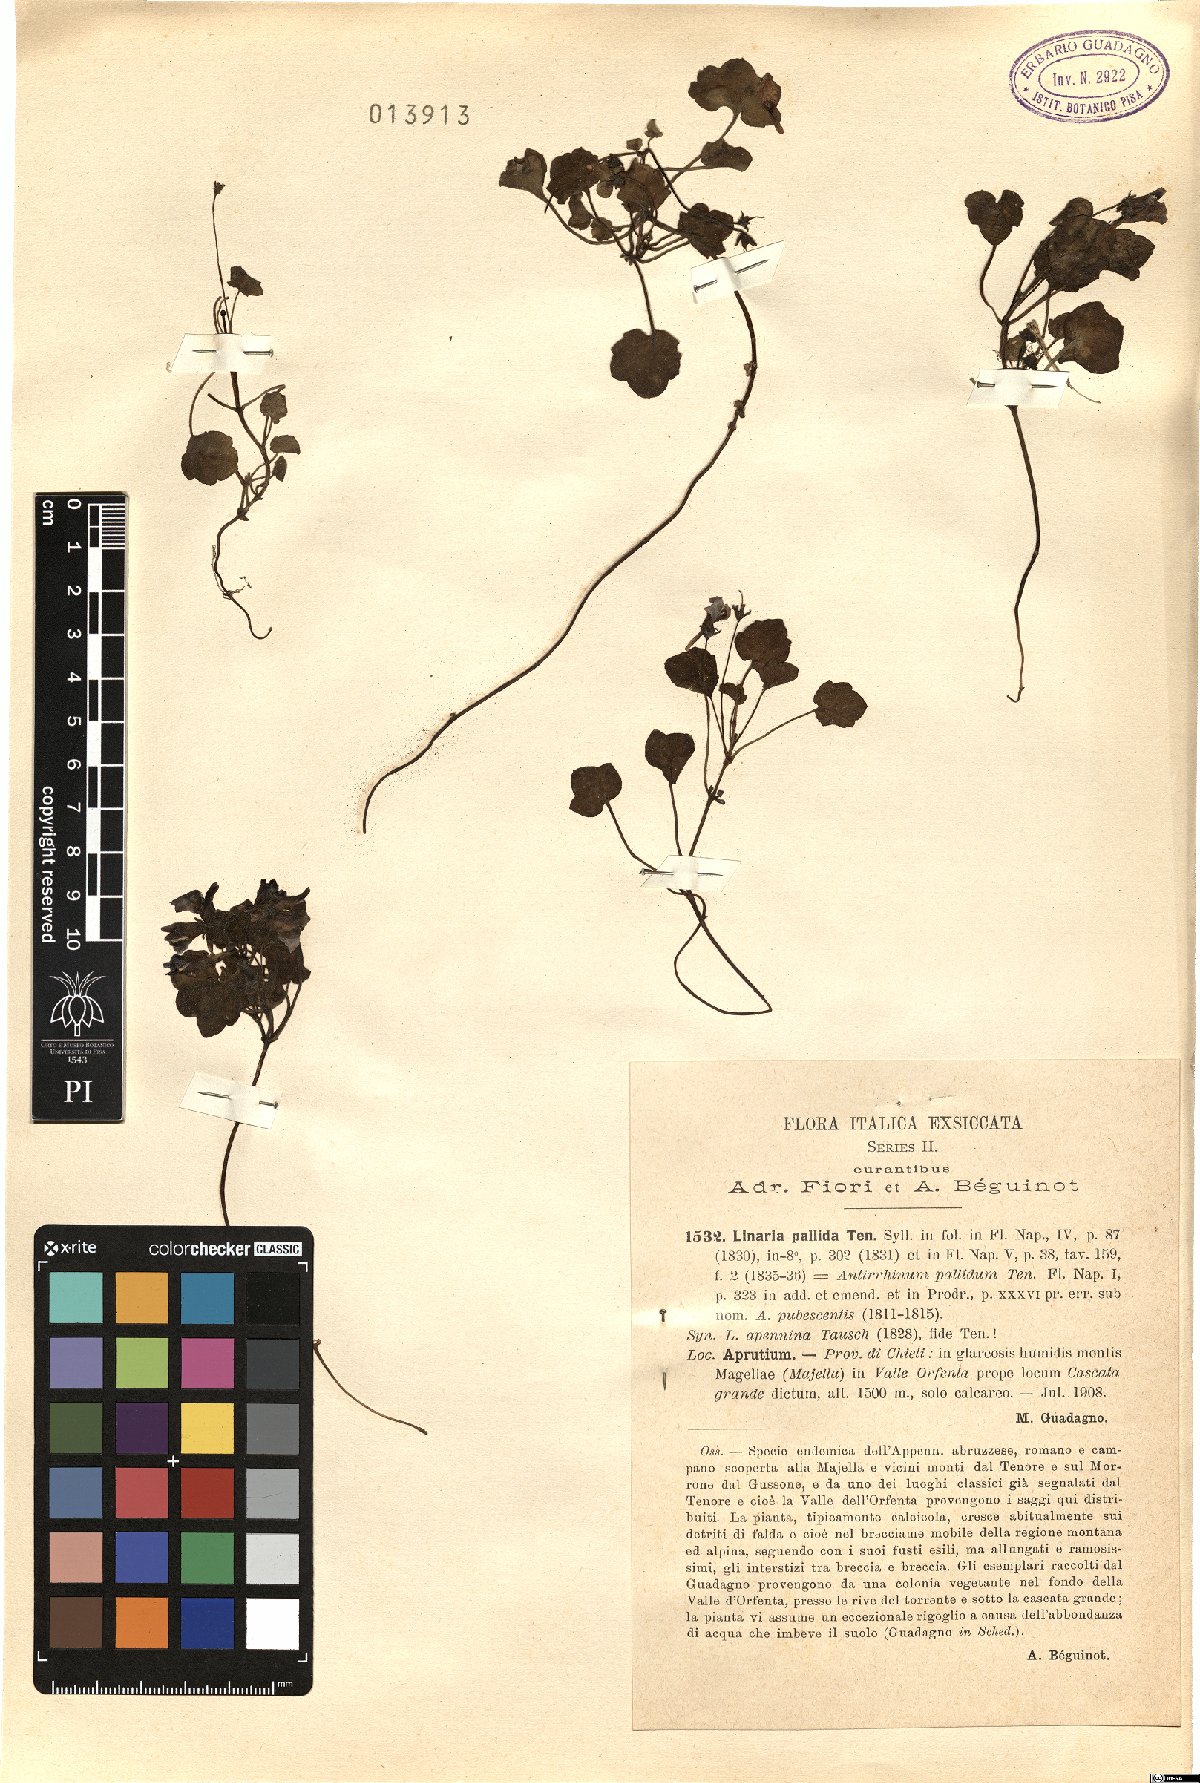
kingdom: Plantae
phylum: Tracheophyta
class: Magnoliopsida
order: Lamiales
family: Plantaginaceae
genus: Cymbalaria
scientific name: Cymbalaria pallida
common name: Italian toadflax
